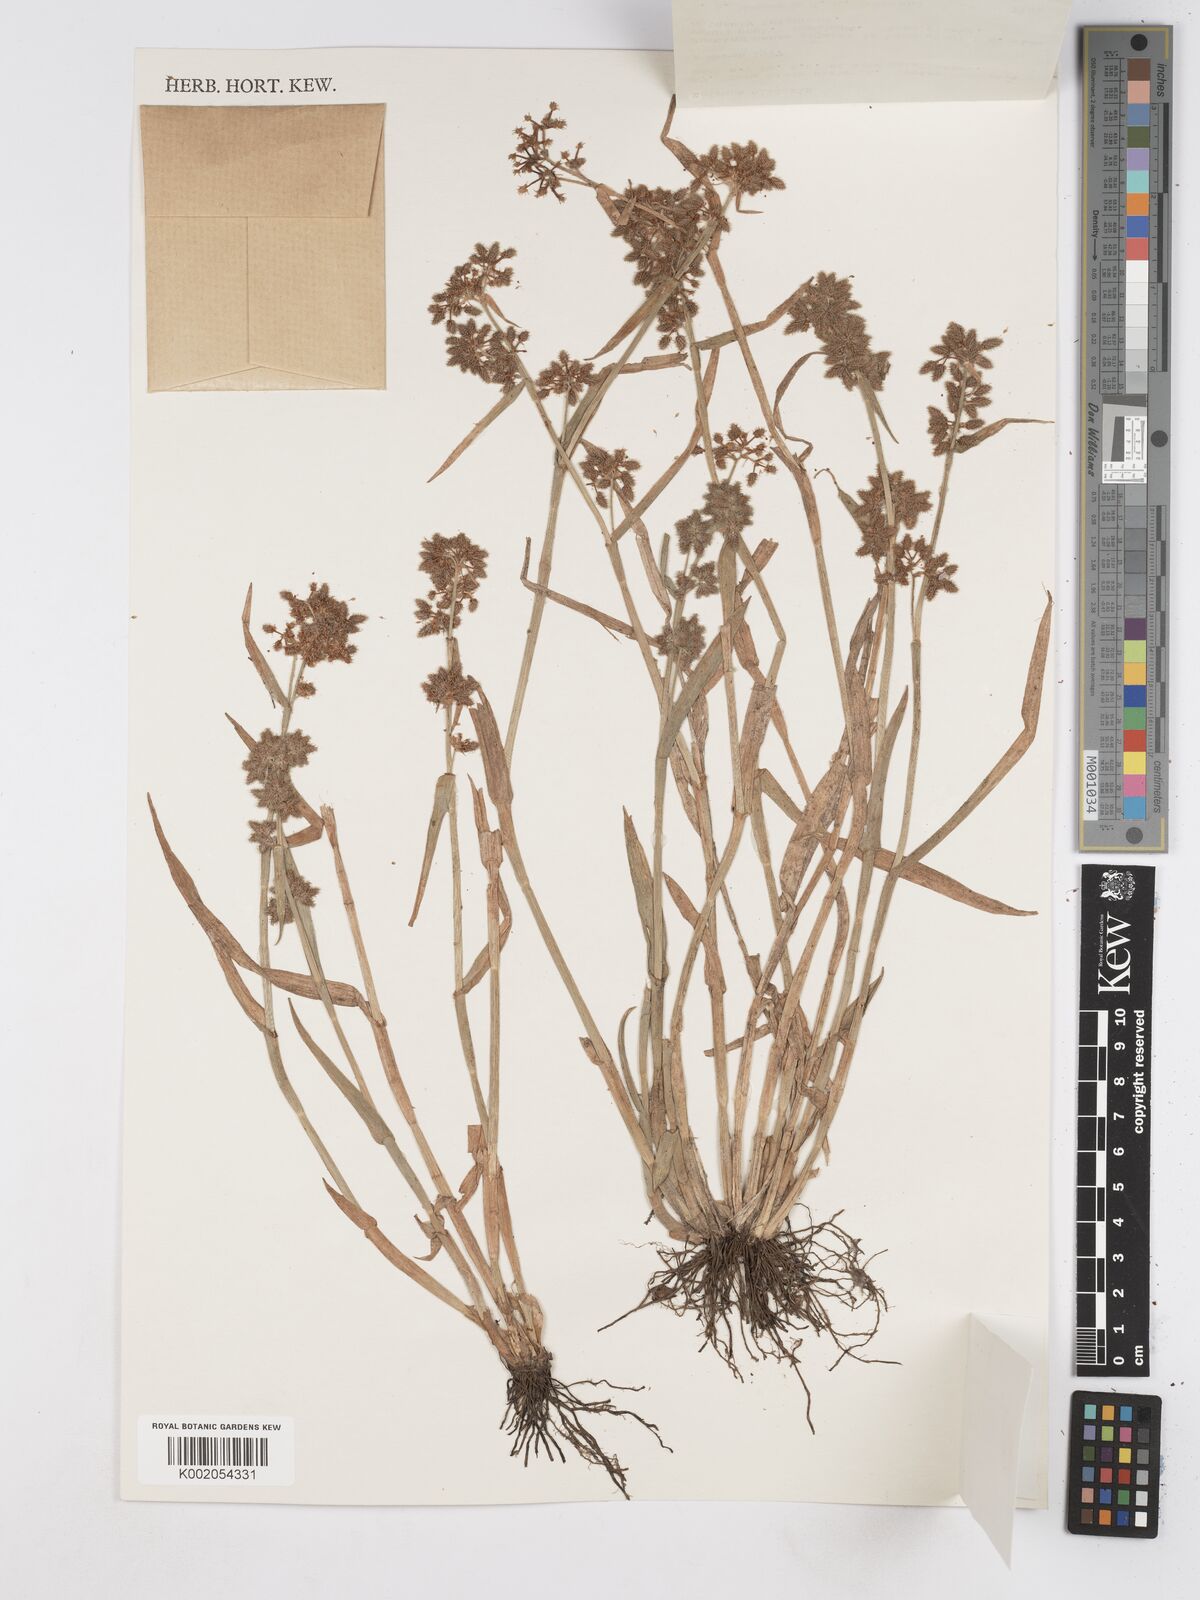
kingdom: Plantae
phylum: Tracheophyta
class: Liliopsida
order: Poales
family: Cyperaceae
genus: Fuirena
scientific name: Fuirena ciliaris
